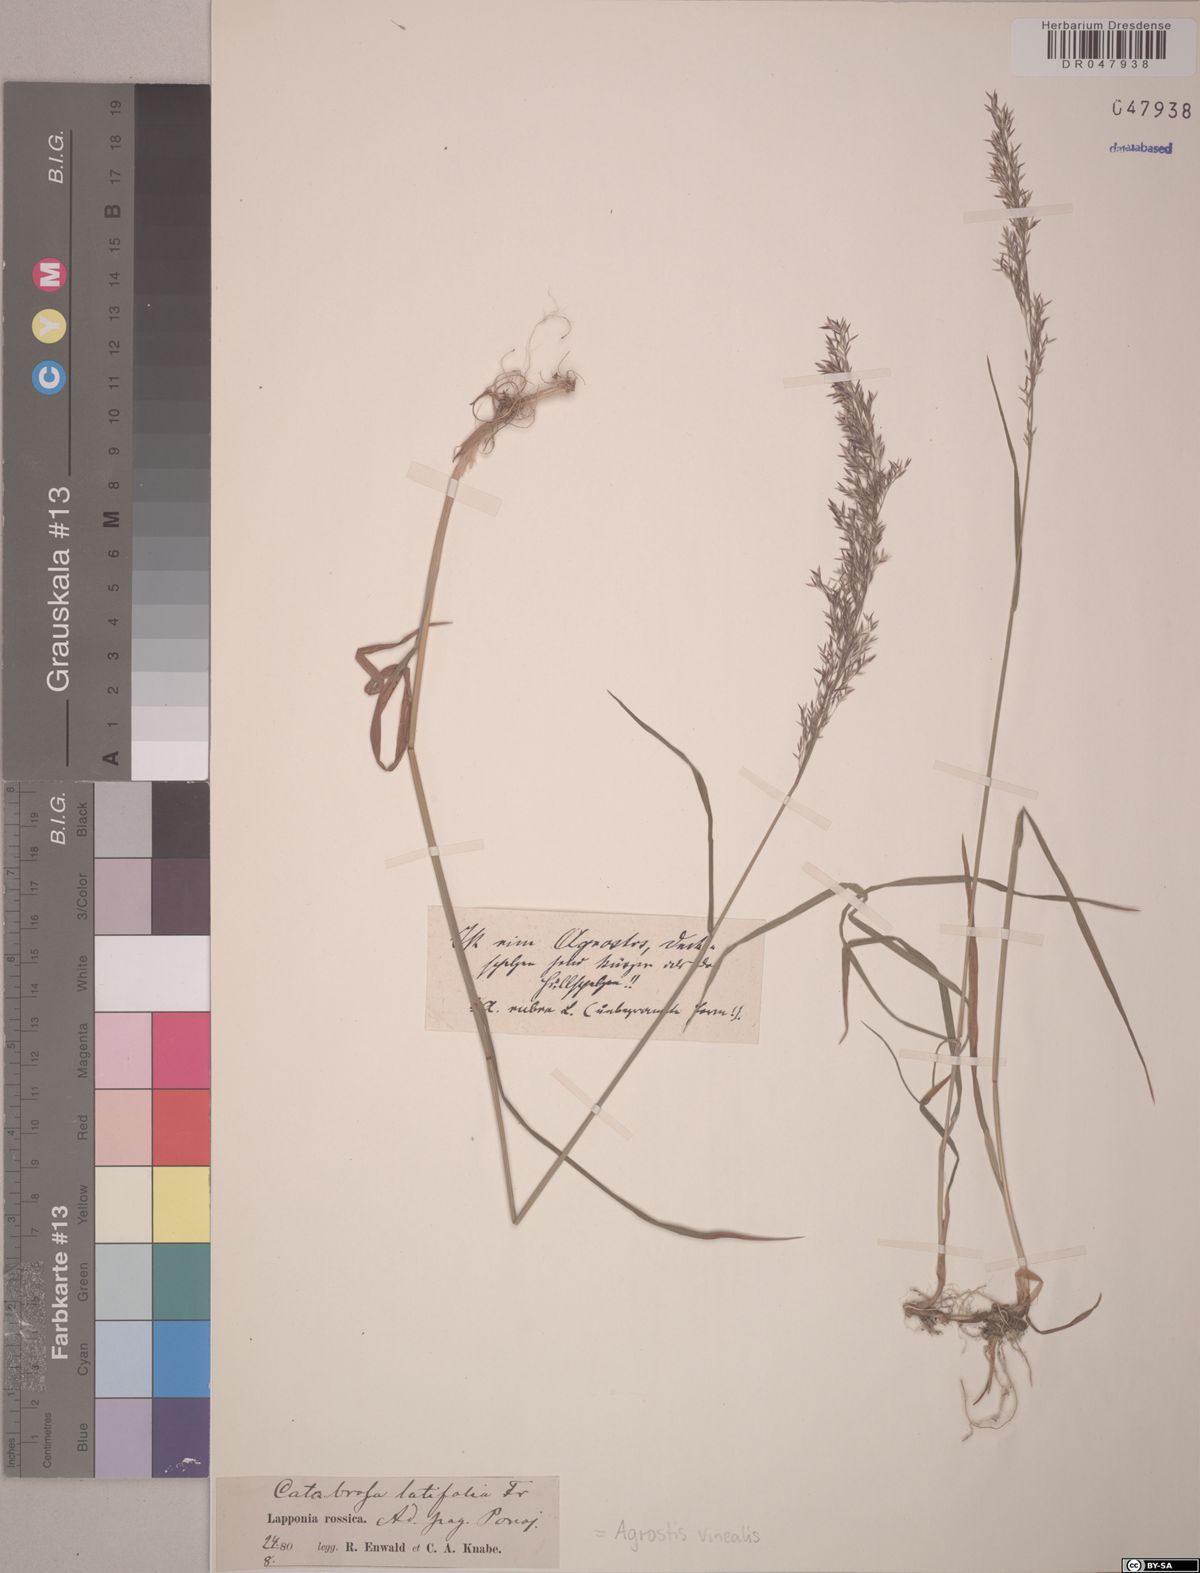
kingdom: Plantae
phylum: Tracheophyta
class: Liliopsida
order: Poales
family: Poaceae
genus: Agrostis
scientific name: Agrostis vinealis
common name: Brown bent
